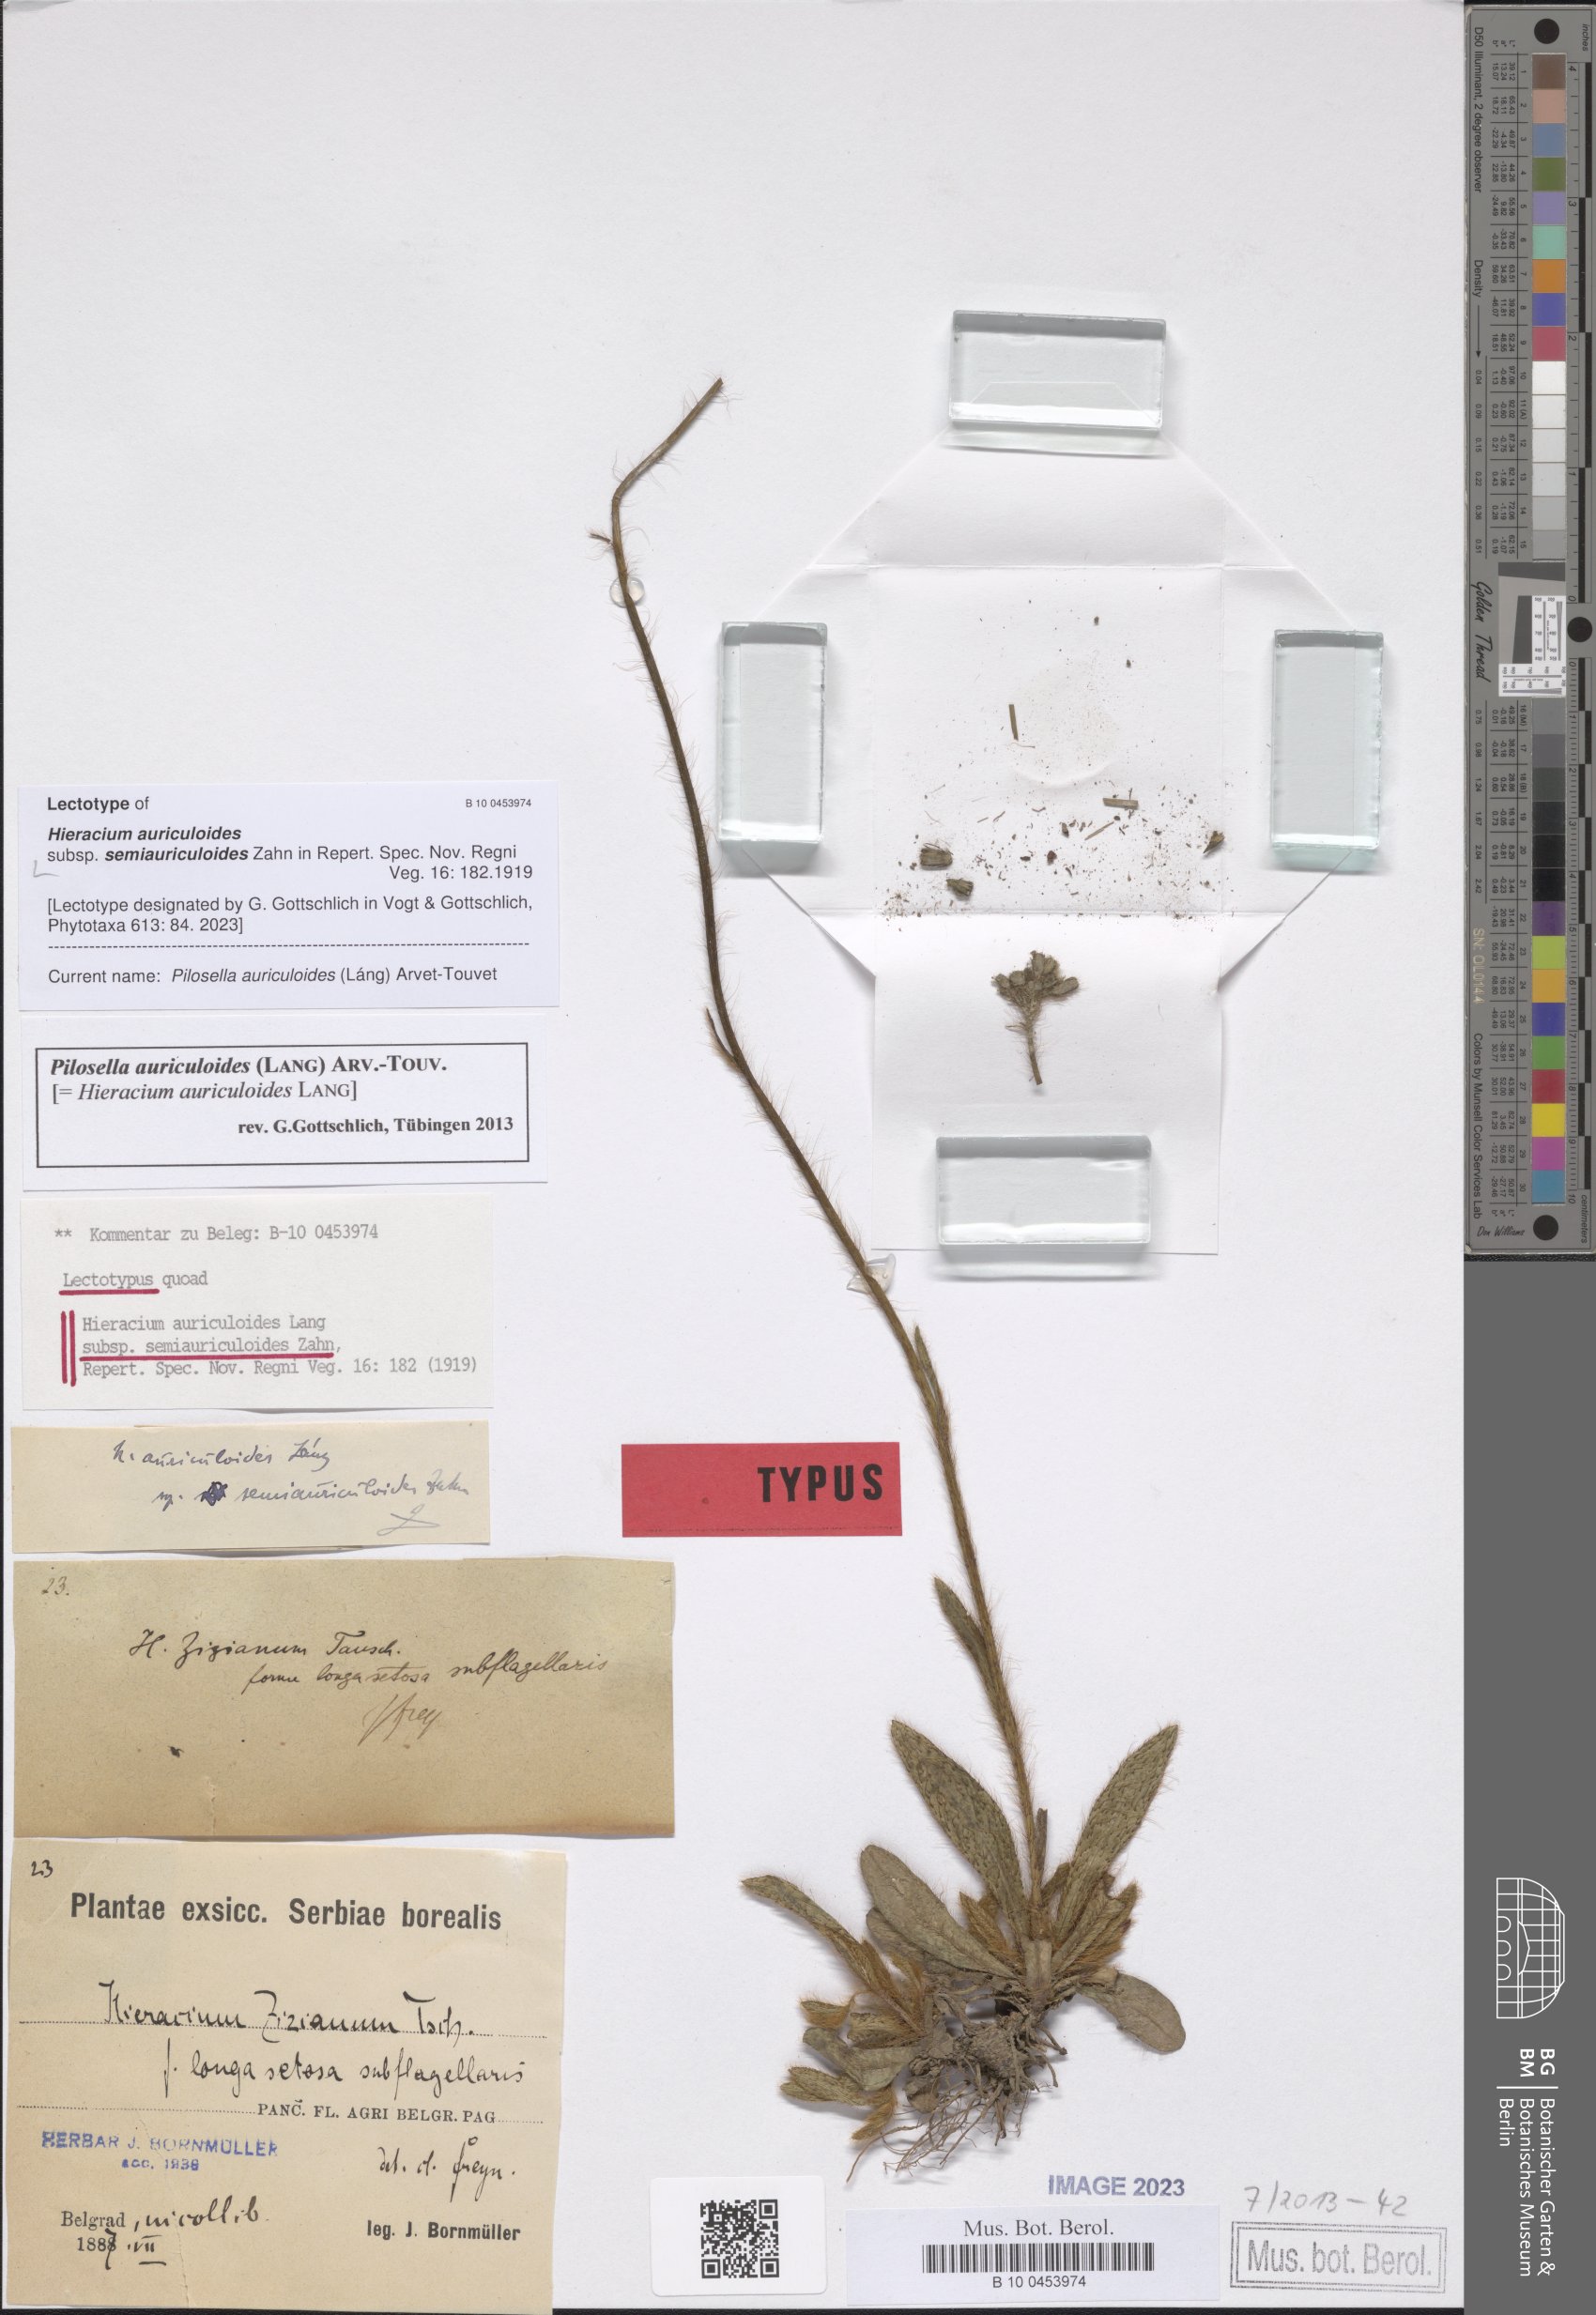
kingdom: Plantae
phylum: Tracheophyta
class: Magnoliopsida
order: Asterales
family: Asteraceae
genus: Pilosella
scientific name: Pilosella auriculoides
